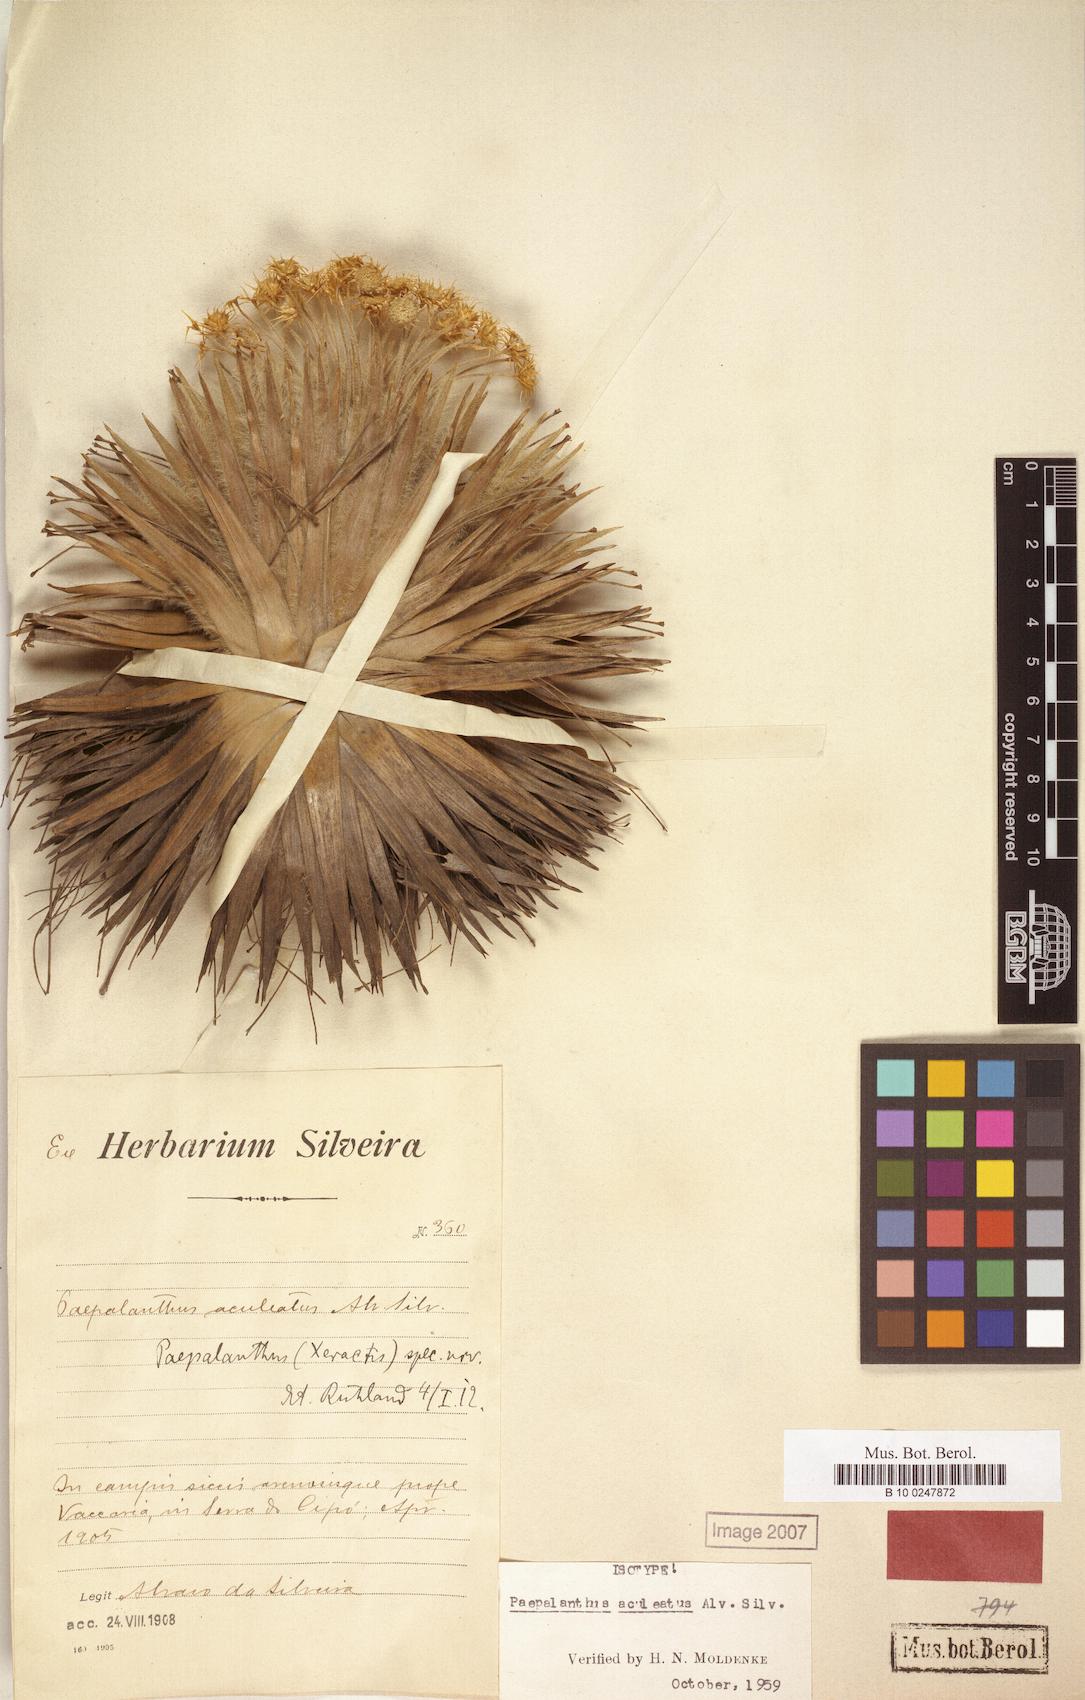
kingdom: Plantae
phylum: Tracheophyta
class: Liliopsida
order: Poales
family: Eriocaulaceae
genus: Paepalanthus
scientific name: Paepalanthus aculeatus
